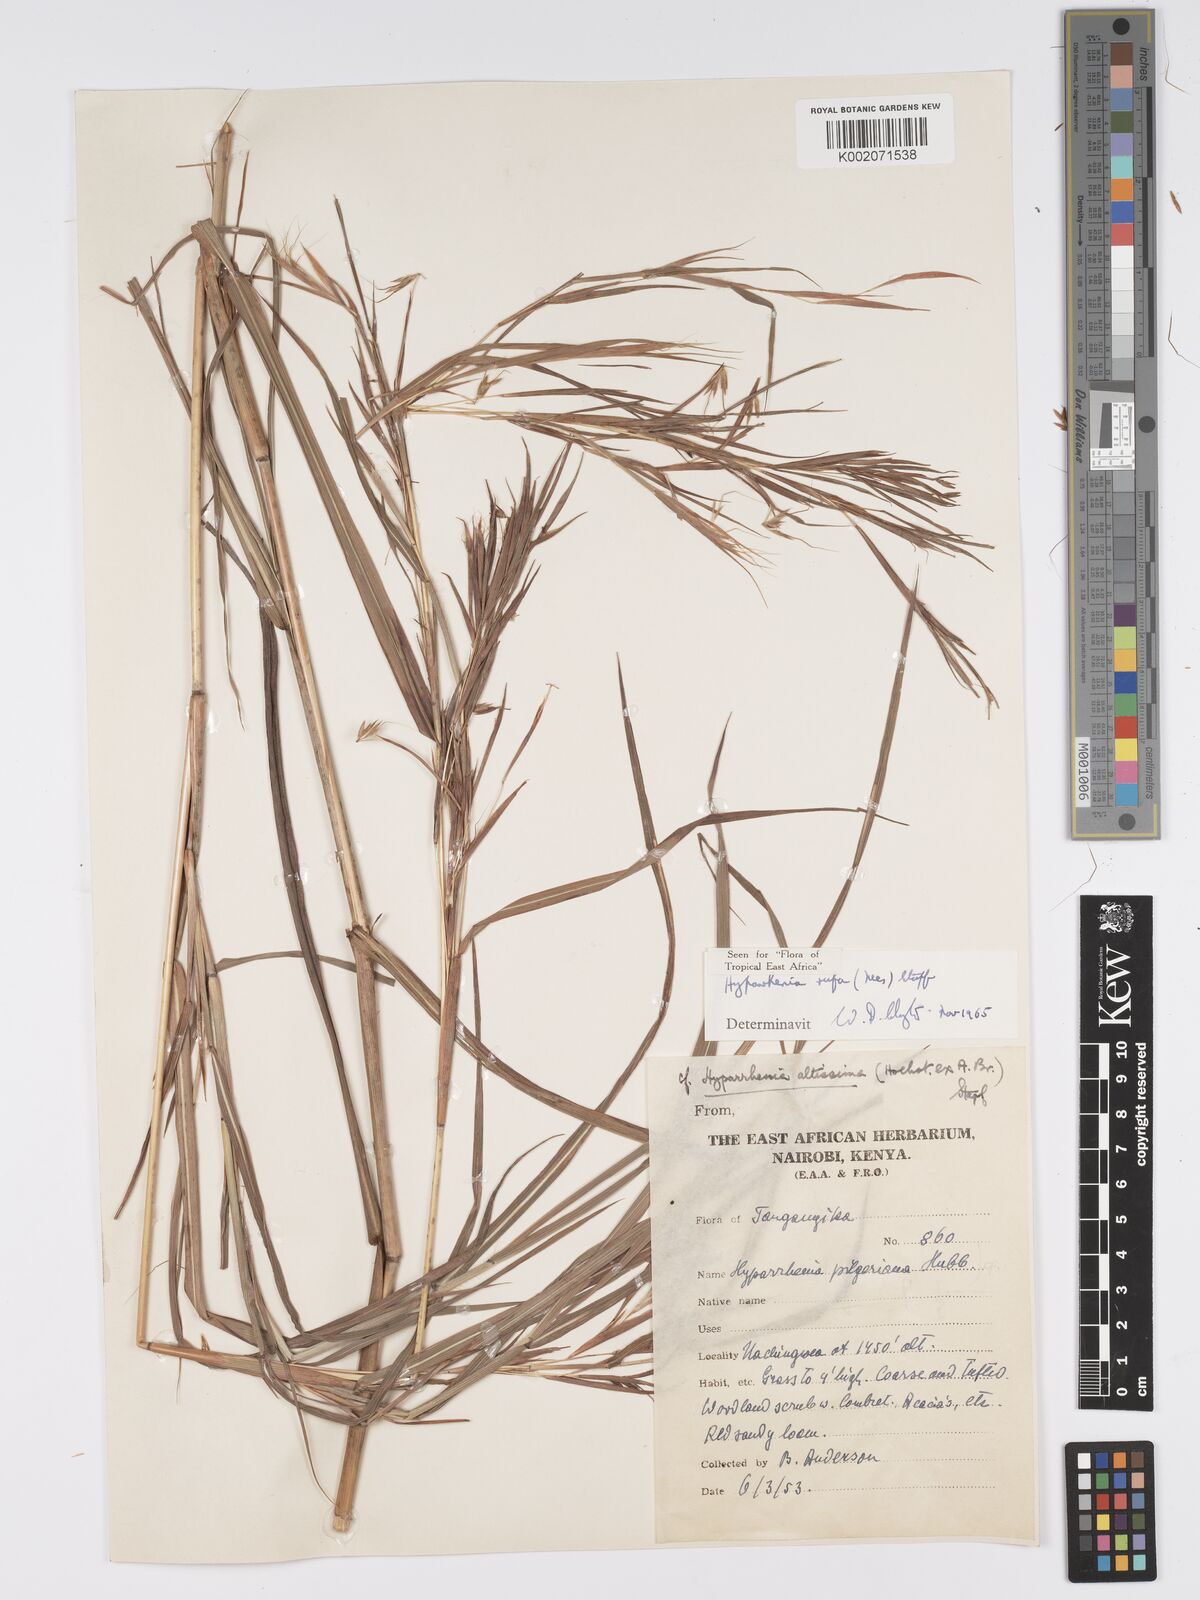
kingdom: Plantae
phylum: Tracheophyta
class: Liliopsida
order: Poales
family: Poaceae
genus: Hyparrhenia
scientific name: Hyparrhenia rufa
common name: Jaraguagrass
